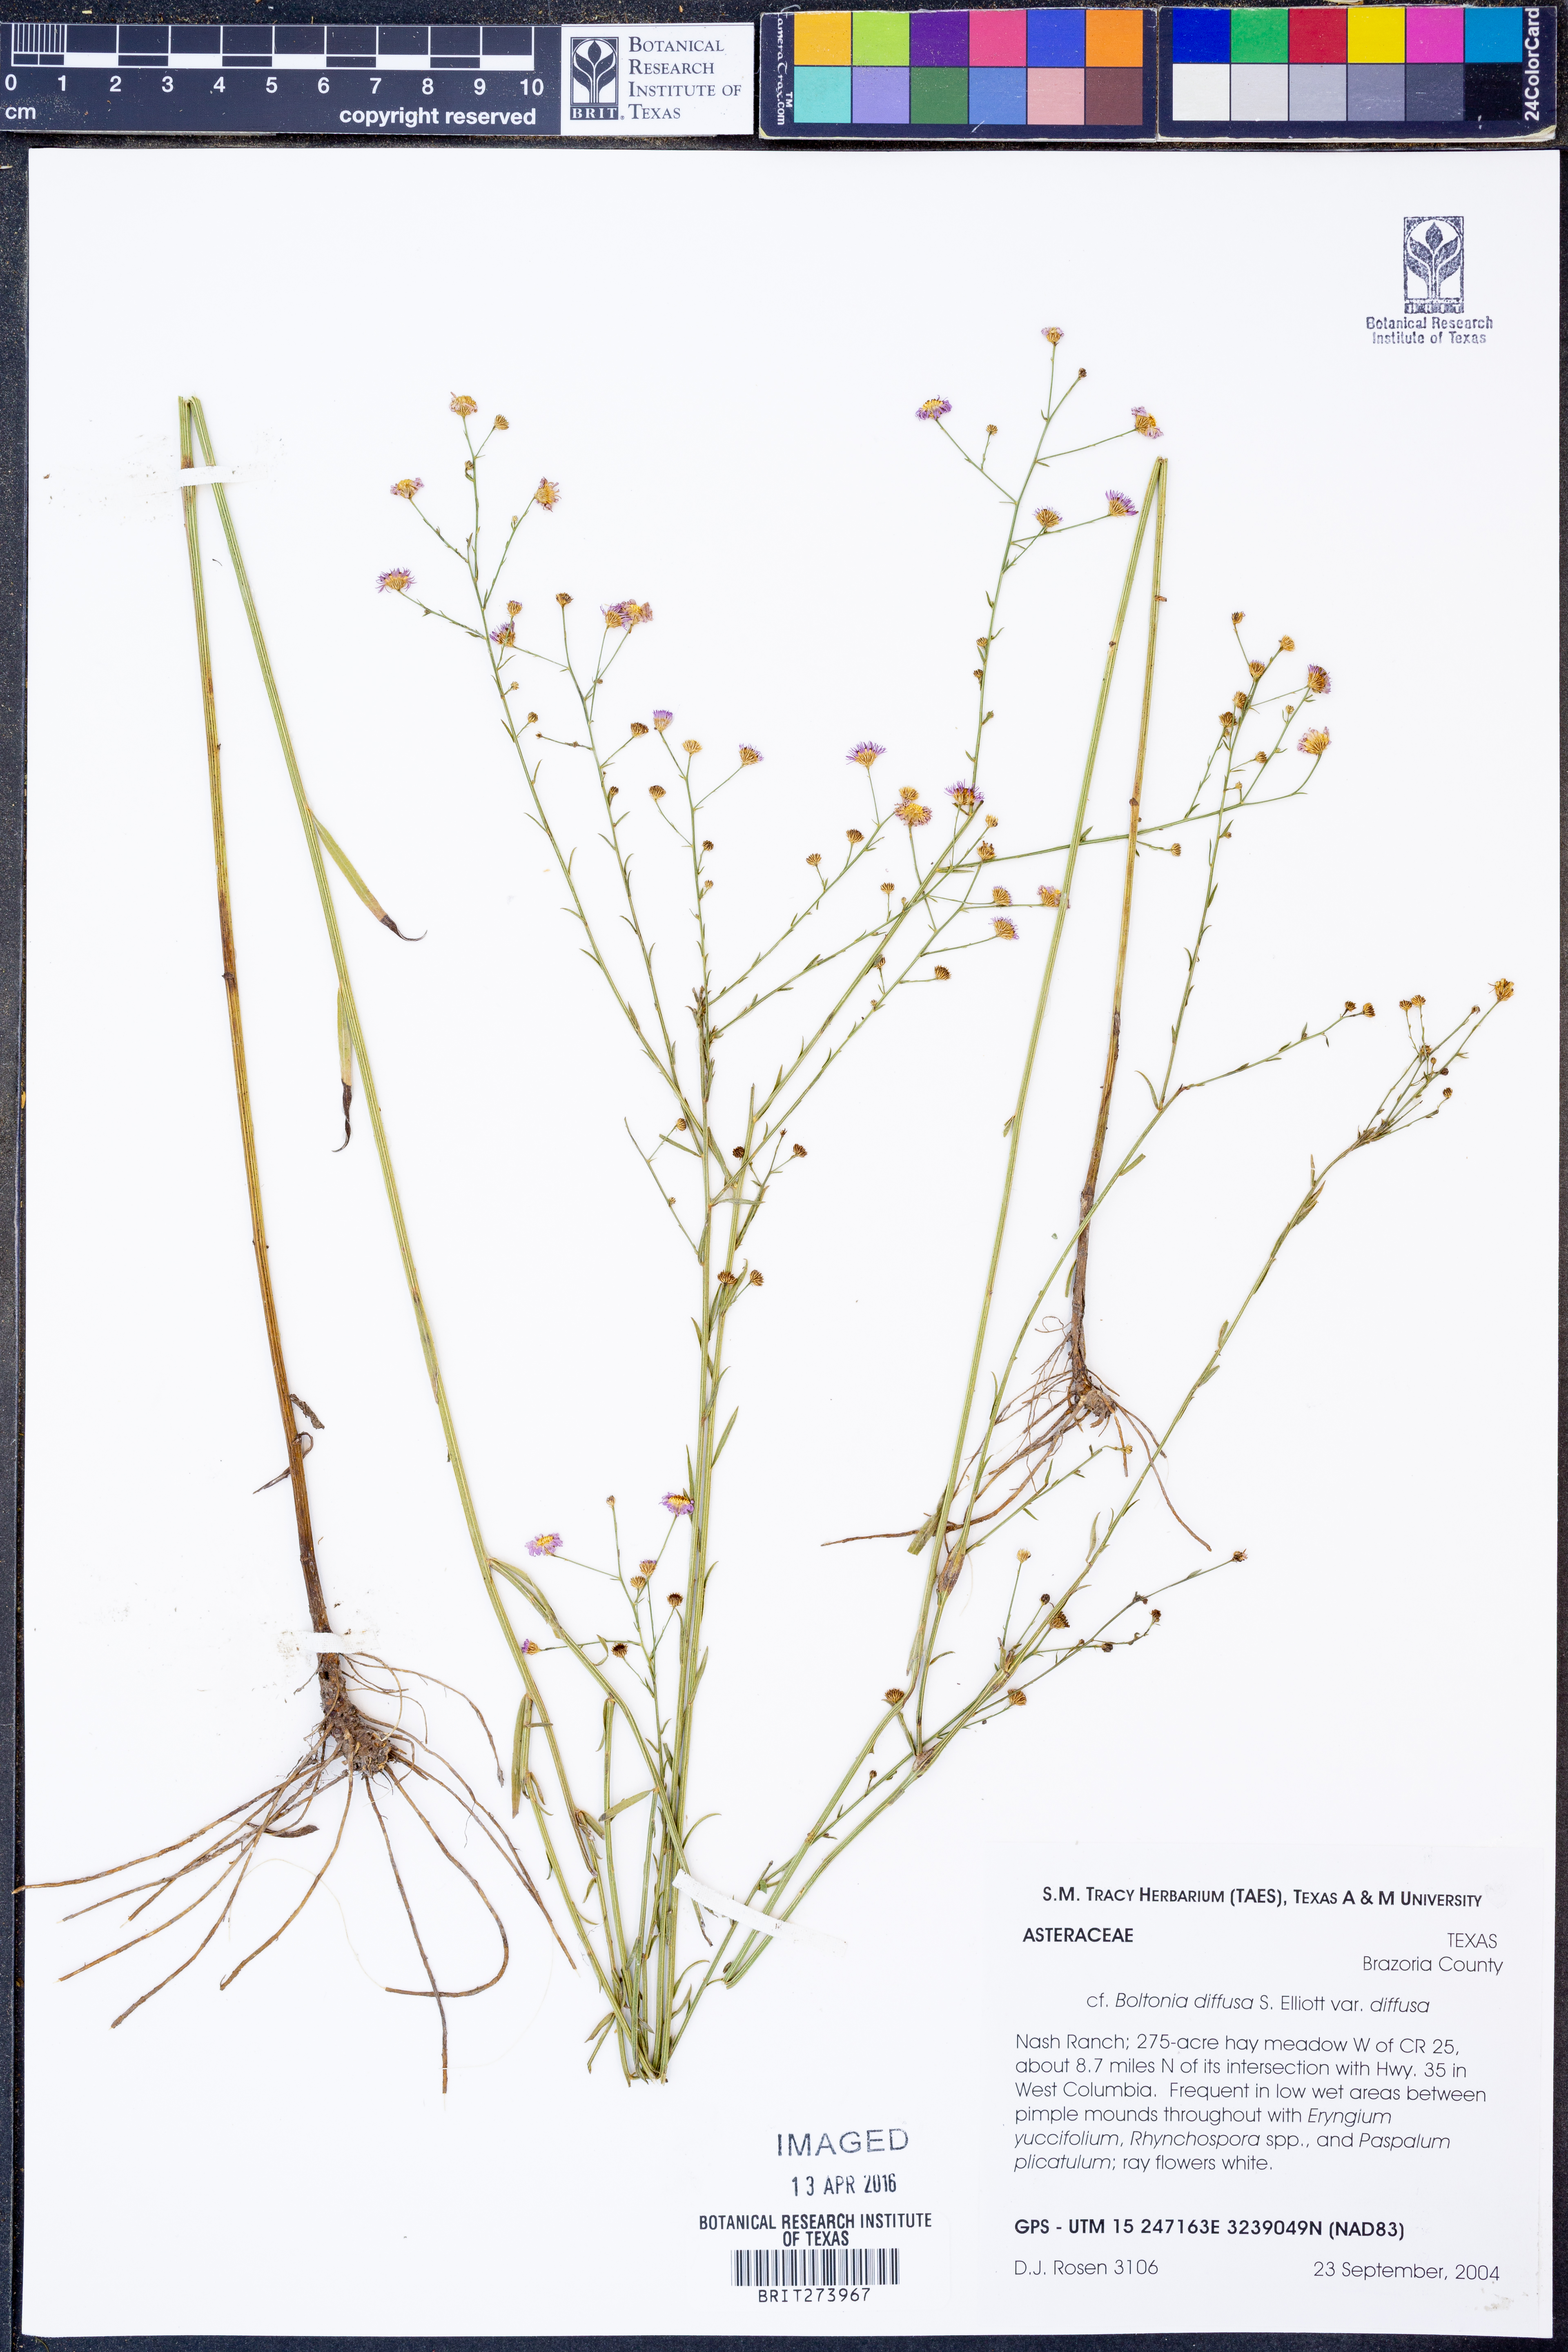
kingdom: Plantae
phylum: Tracheophyta
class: Magnoliopsida
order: Asterales
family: Asteraceae
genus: Boltonia
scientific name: Boltonia diffusa
